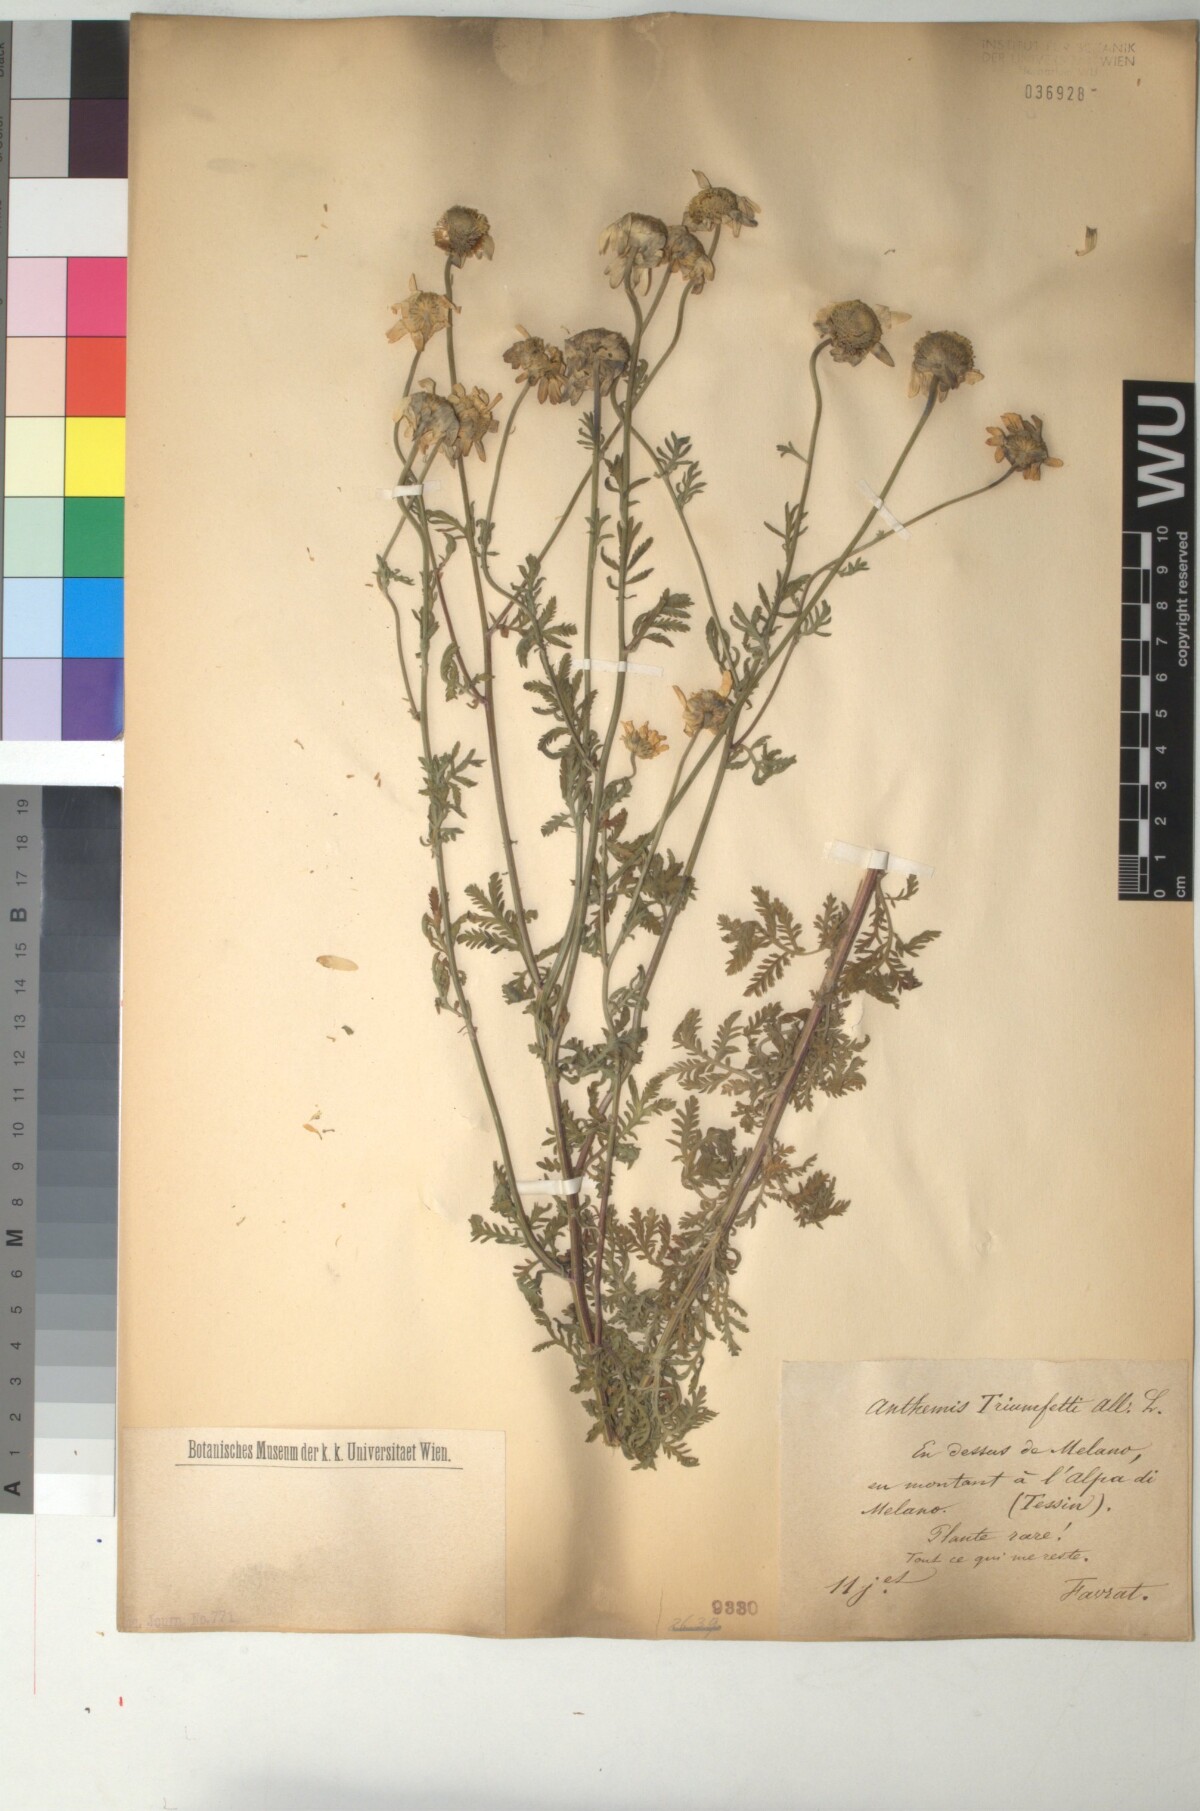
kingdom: Plantae
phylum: Tracheophyta
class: Magnoliopsida
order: Asterales
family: Asteraceae
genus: Cota
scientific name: Cota triumfetti
